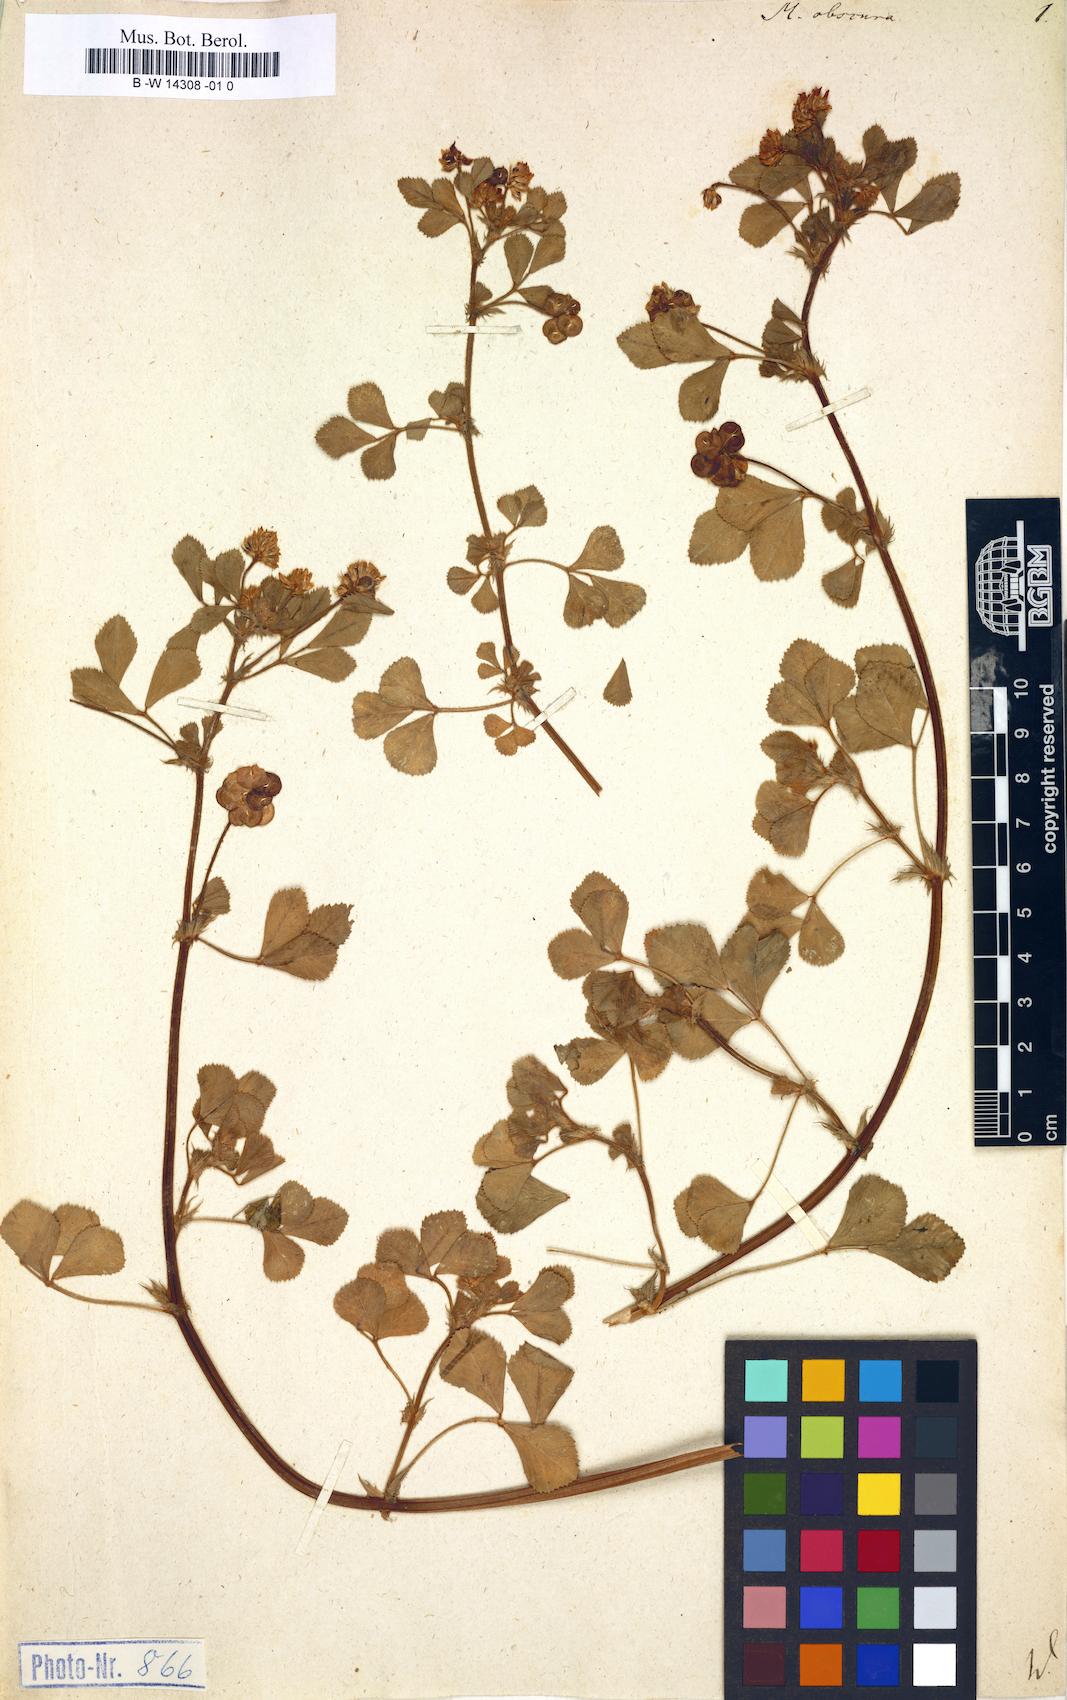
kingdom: Plantae
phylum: Tracheophyta
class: Magnoliopsida
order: Fabales
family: Fabaceae
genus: Medicago
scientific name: Medicago tornata
